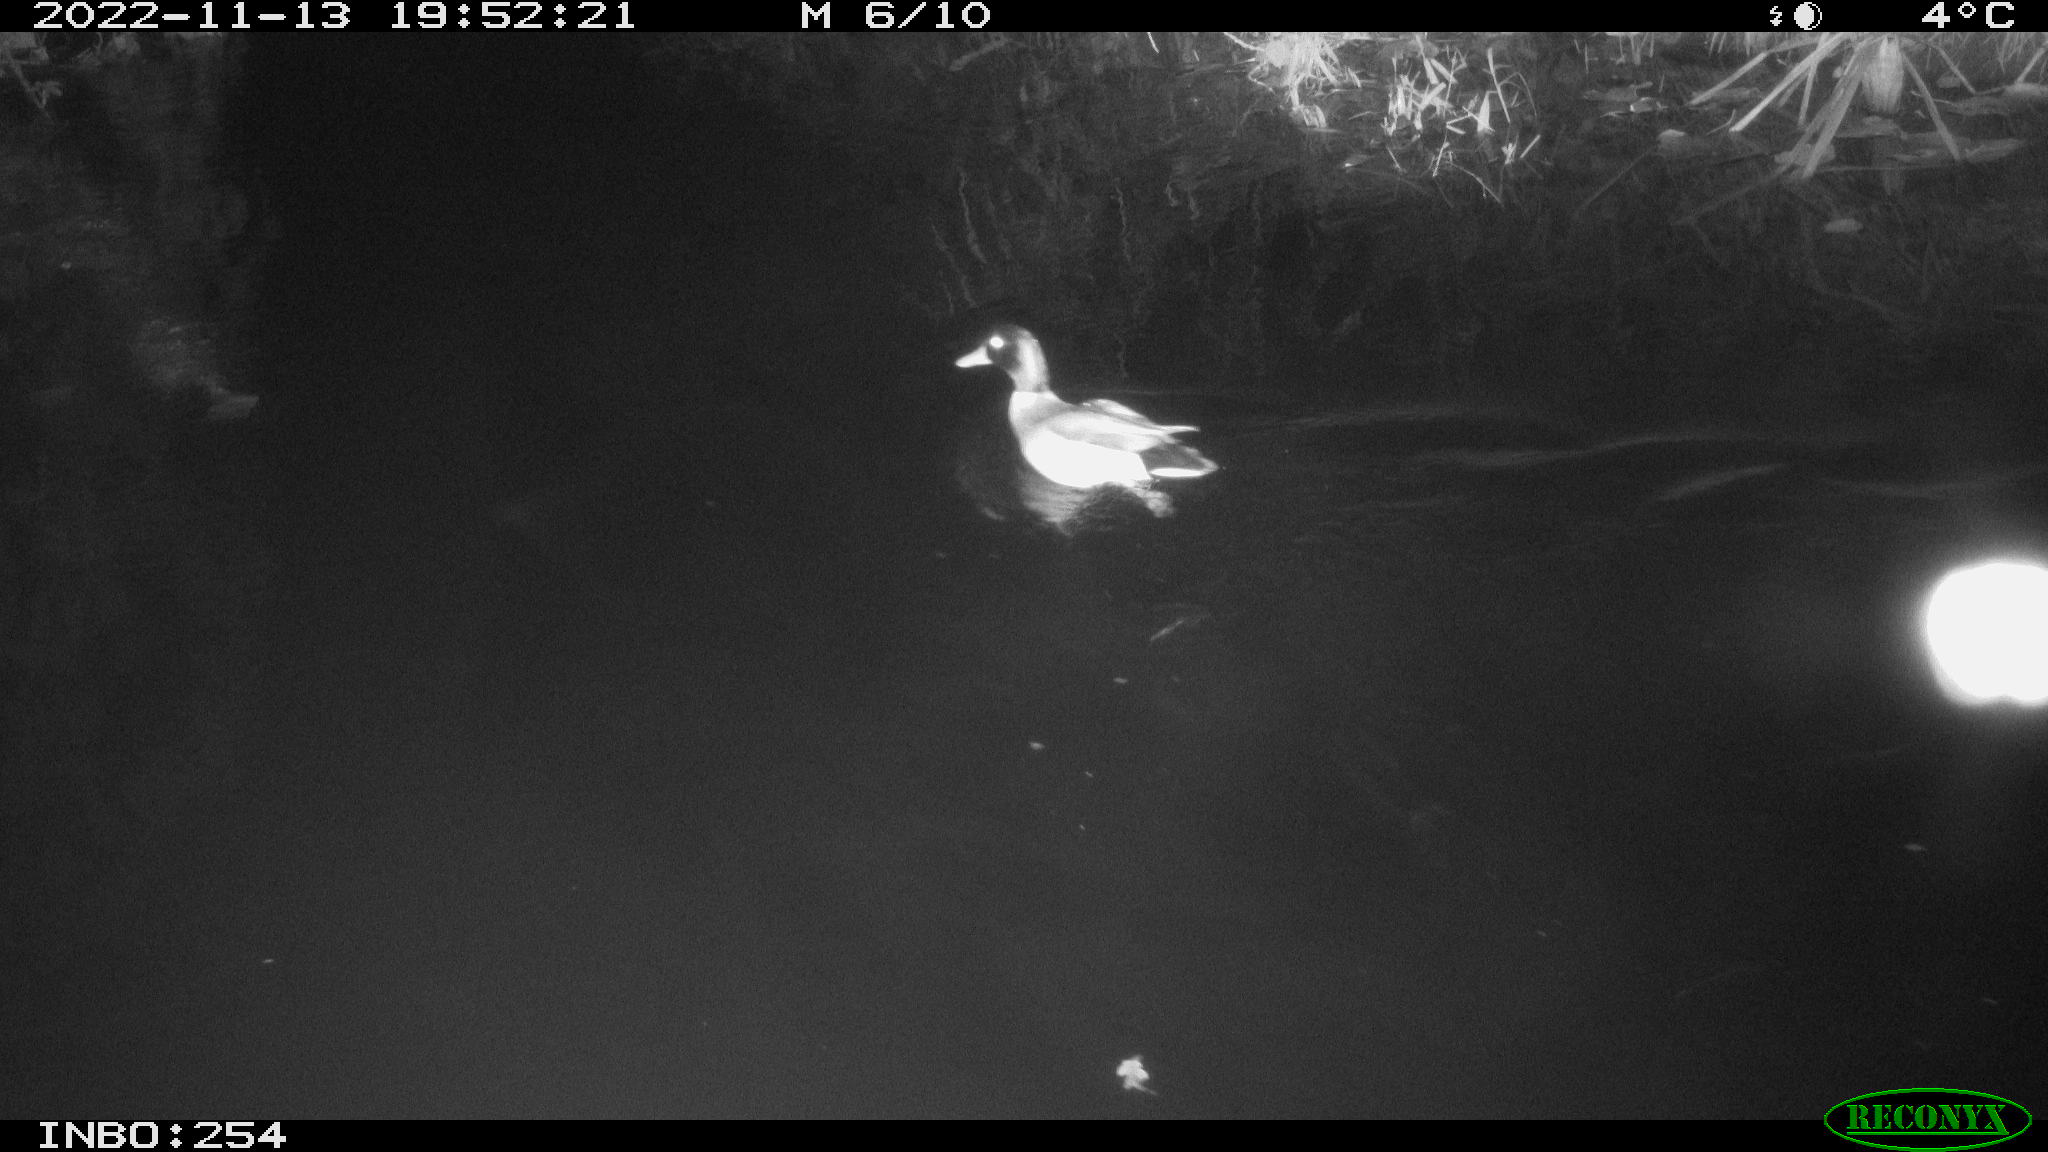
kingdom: Animalia
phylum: Chordata
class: Aves
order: Anseriformes
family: Anatidae
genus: Anas
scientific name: Anas
